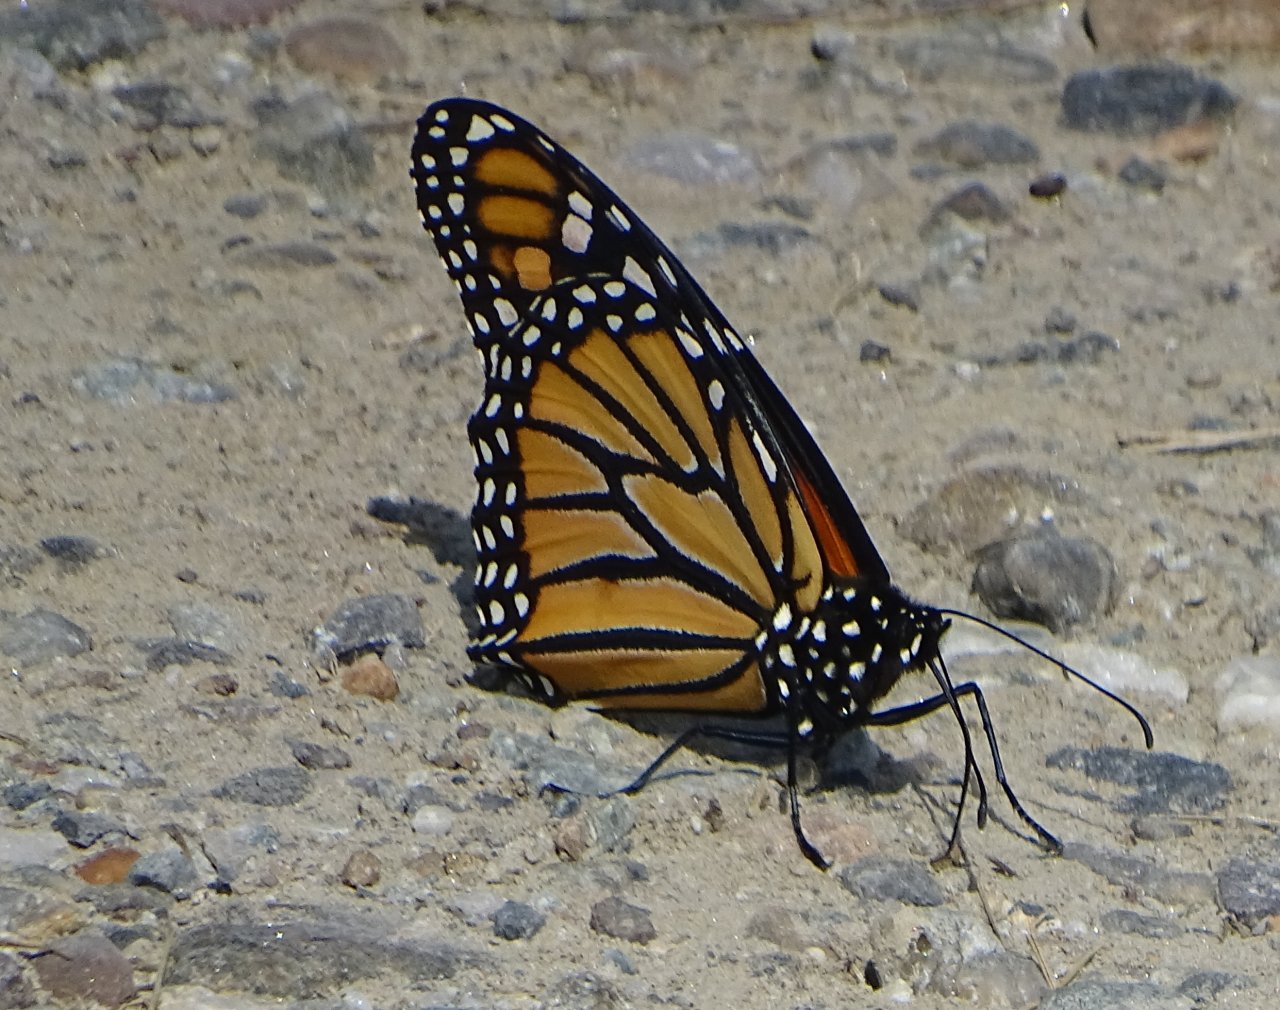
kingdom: Animalia
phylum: Arthropoda
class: Insecta
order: Lepidoptera
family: Nymphalidae
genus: Danaus
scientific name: Danaus plexippus
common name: Monarch
